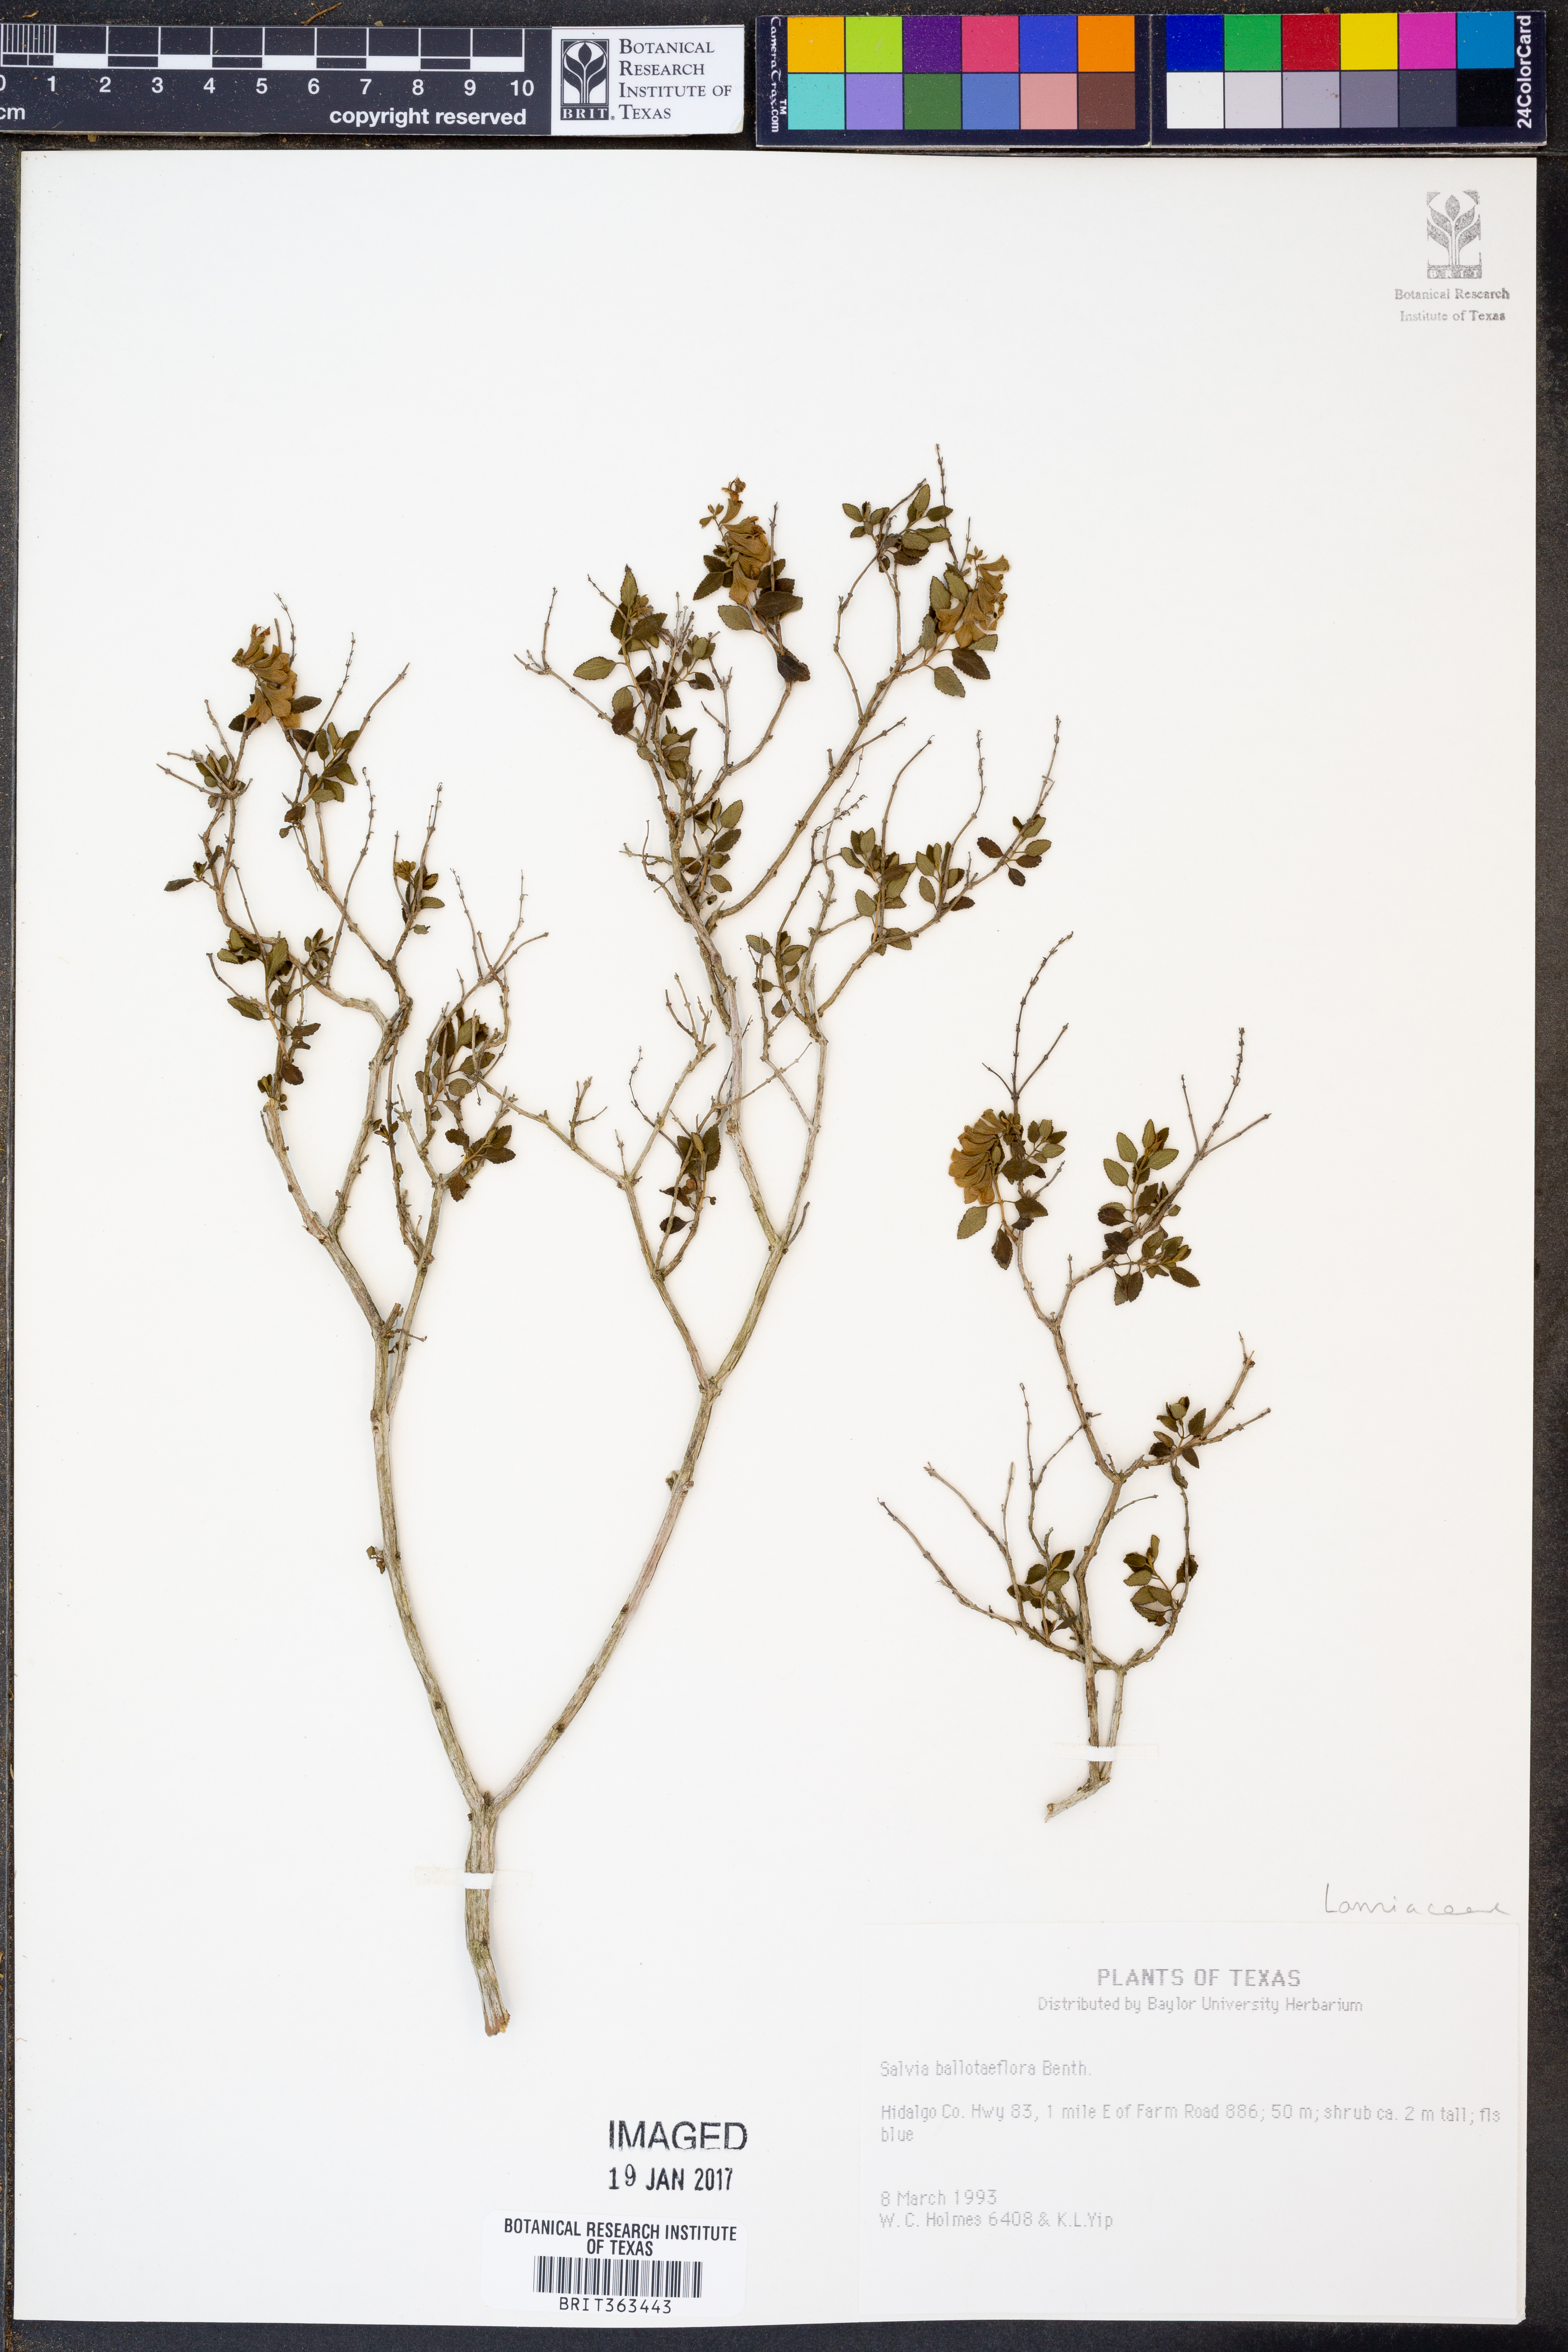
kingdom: Plantae
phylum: Tracheophyta
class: Magnoliopsida
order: Lamiales
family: Lamiaceae
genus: Salvia
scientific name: Salvia ballotiflora
